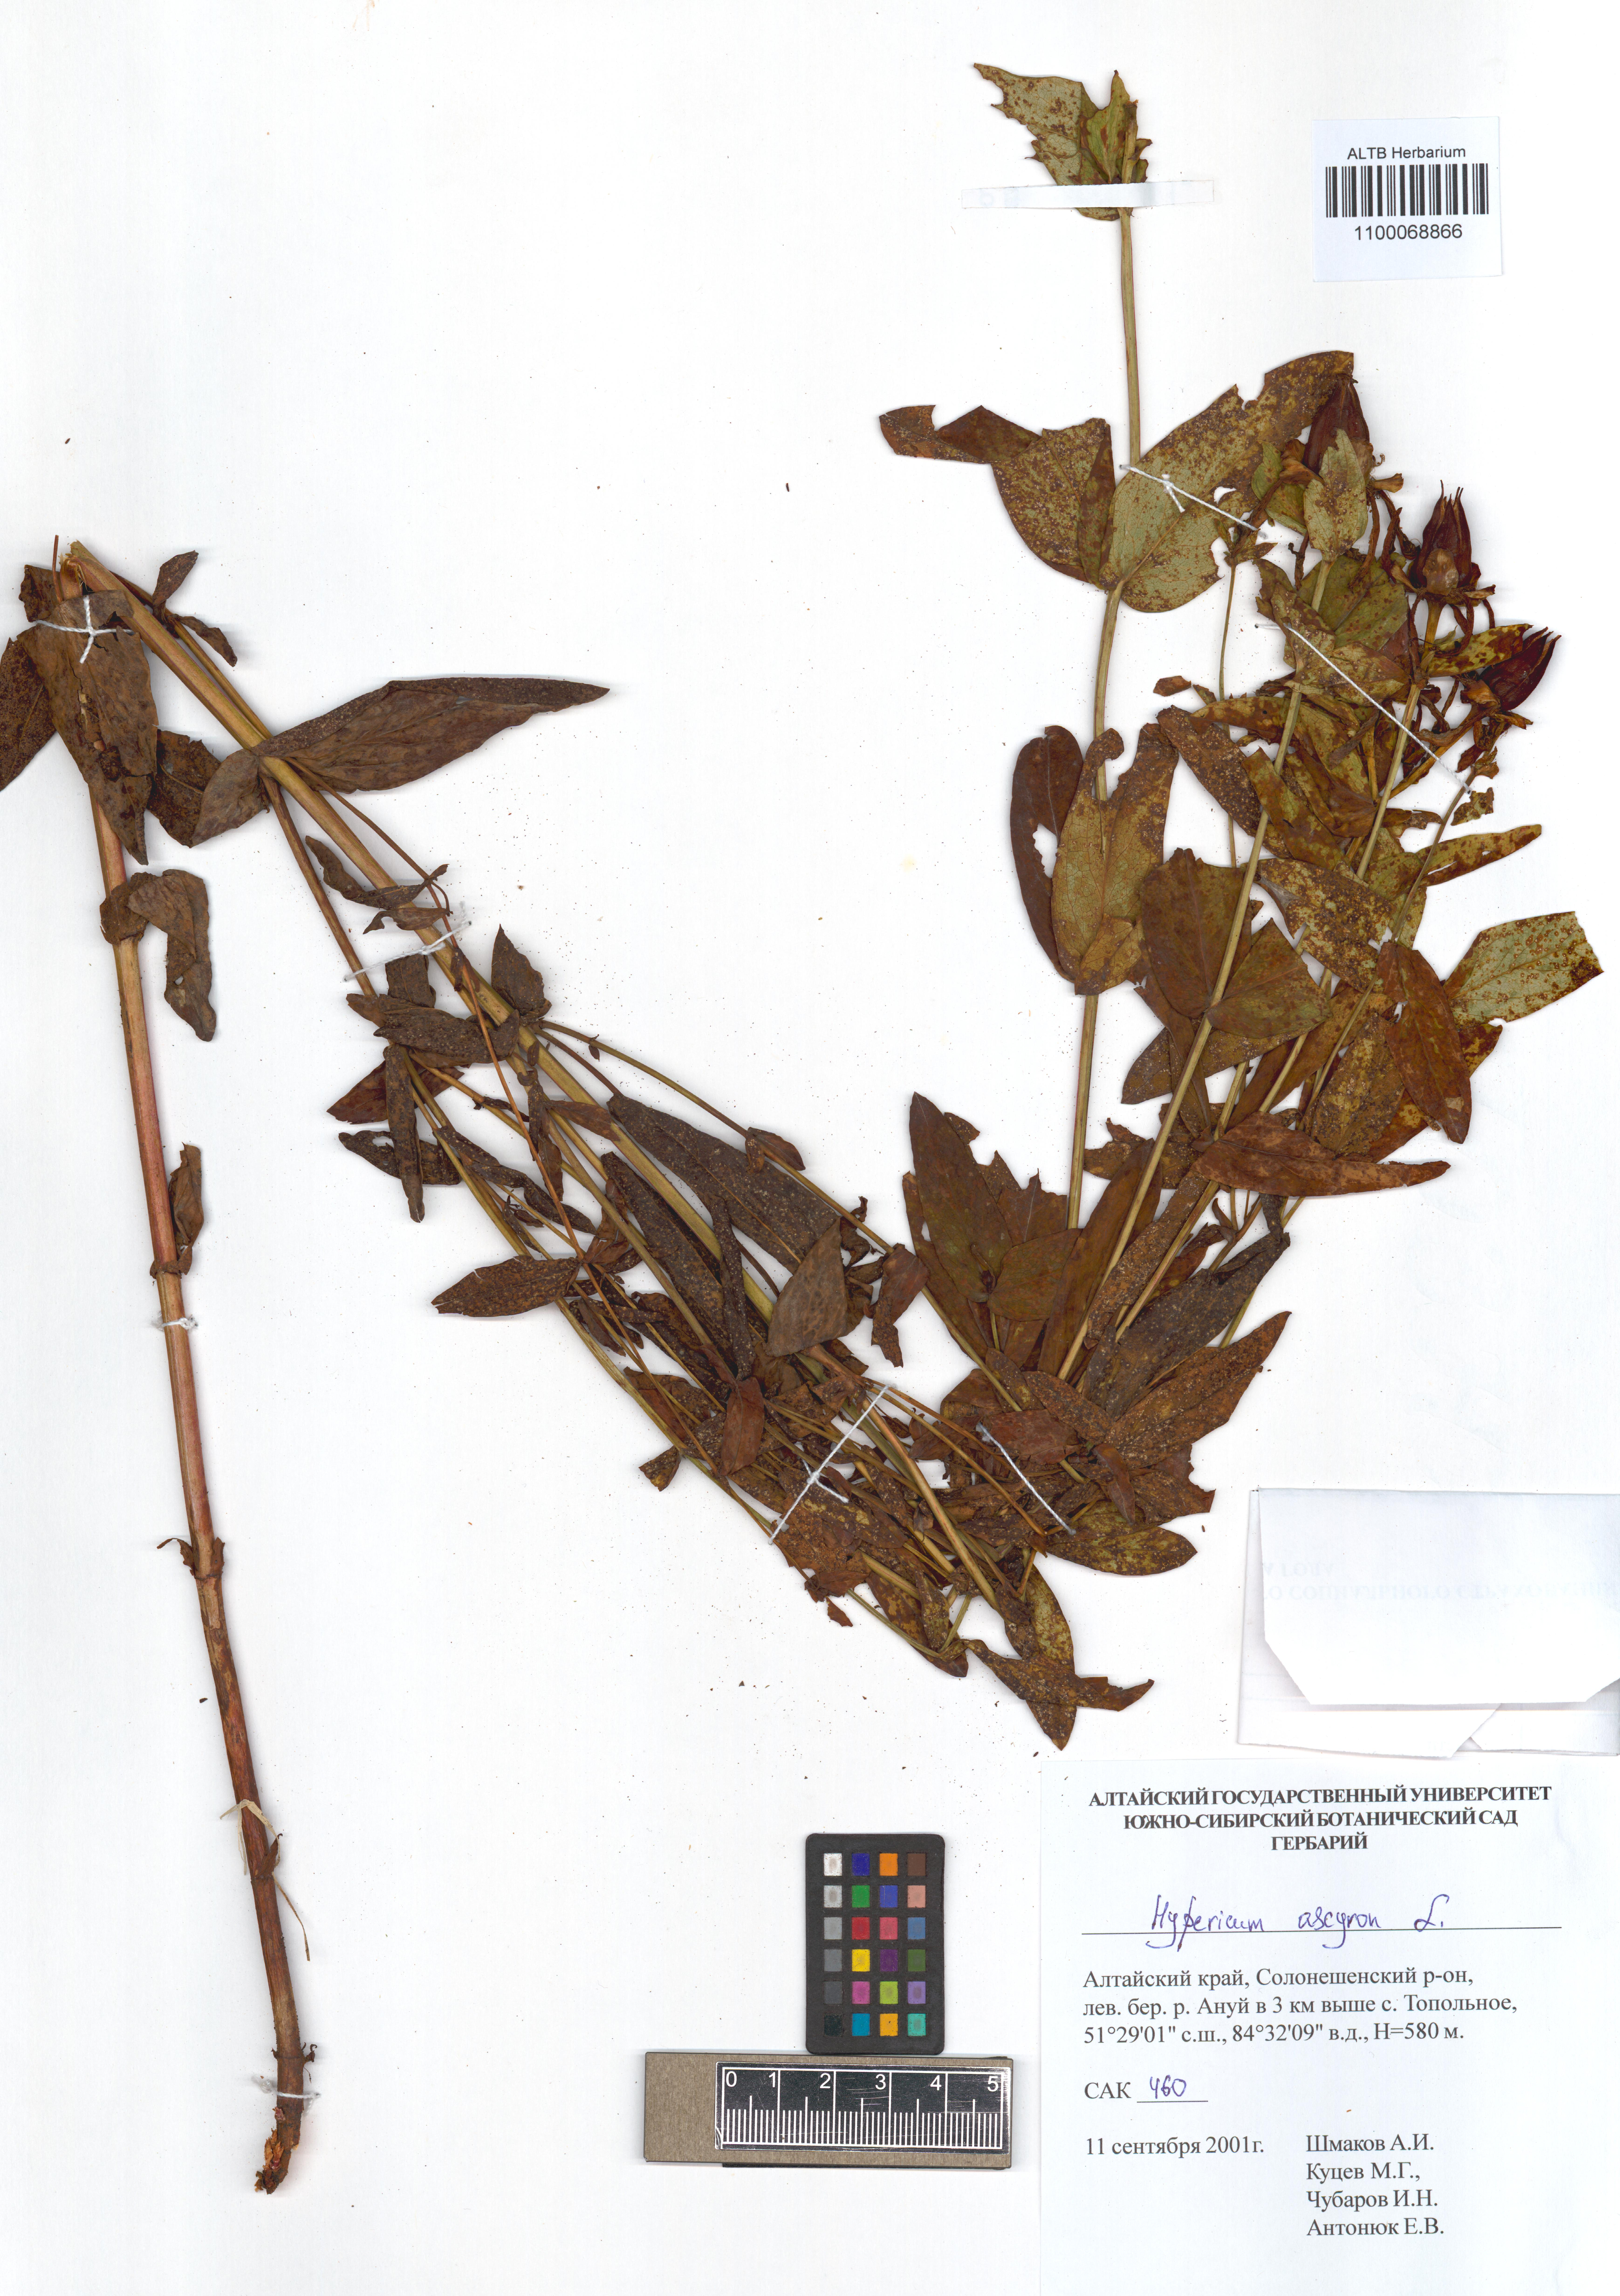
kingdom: Plantae
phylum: Tracheophyta
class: Magnoliopsida
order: Malpighiales
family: Hypericaceae
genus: Hypericum
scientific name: Hypericum ascyron
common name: Giant st. john's-wort
